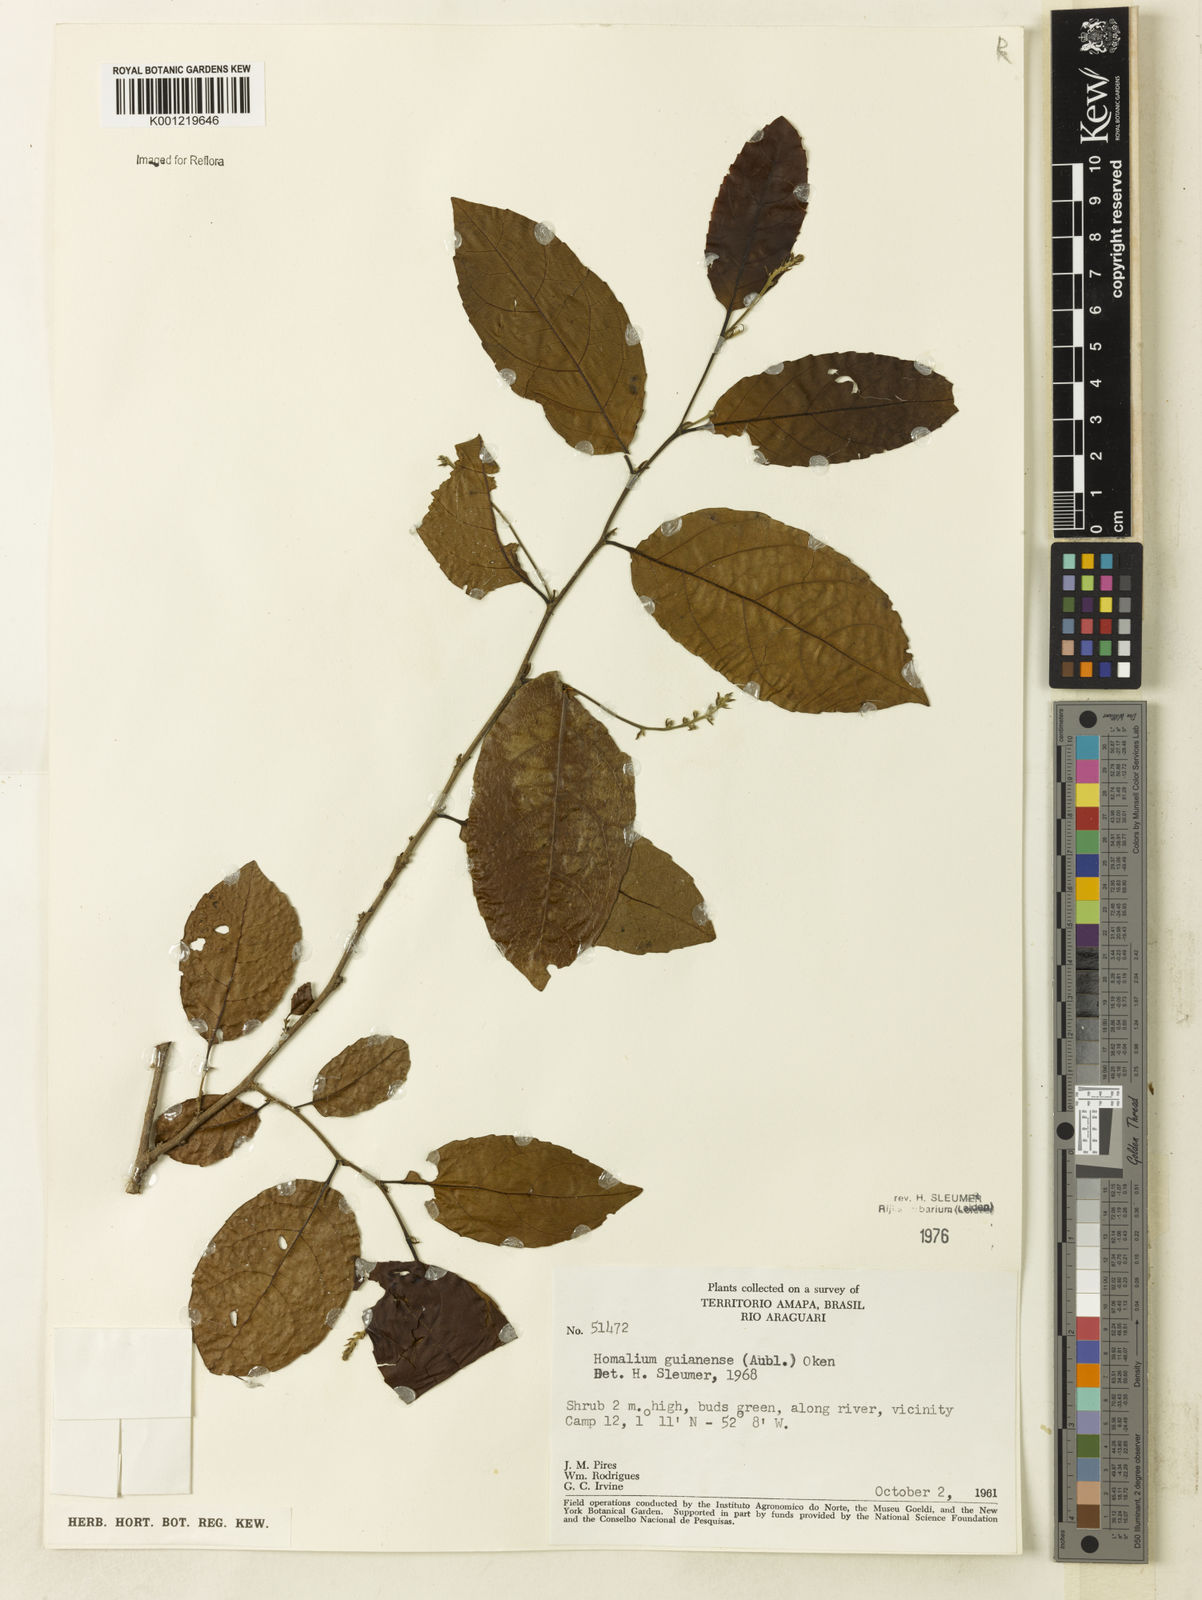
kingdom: Plantae
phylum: Tracheophyta
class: Magnoliopsida
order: Malpighiales
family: Salicaceae
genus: Homalium
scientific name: Homalium guianense
